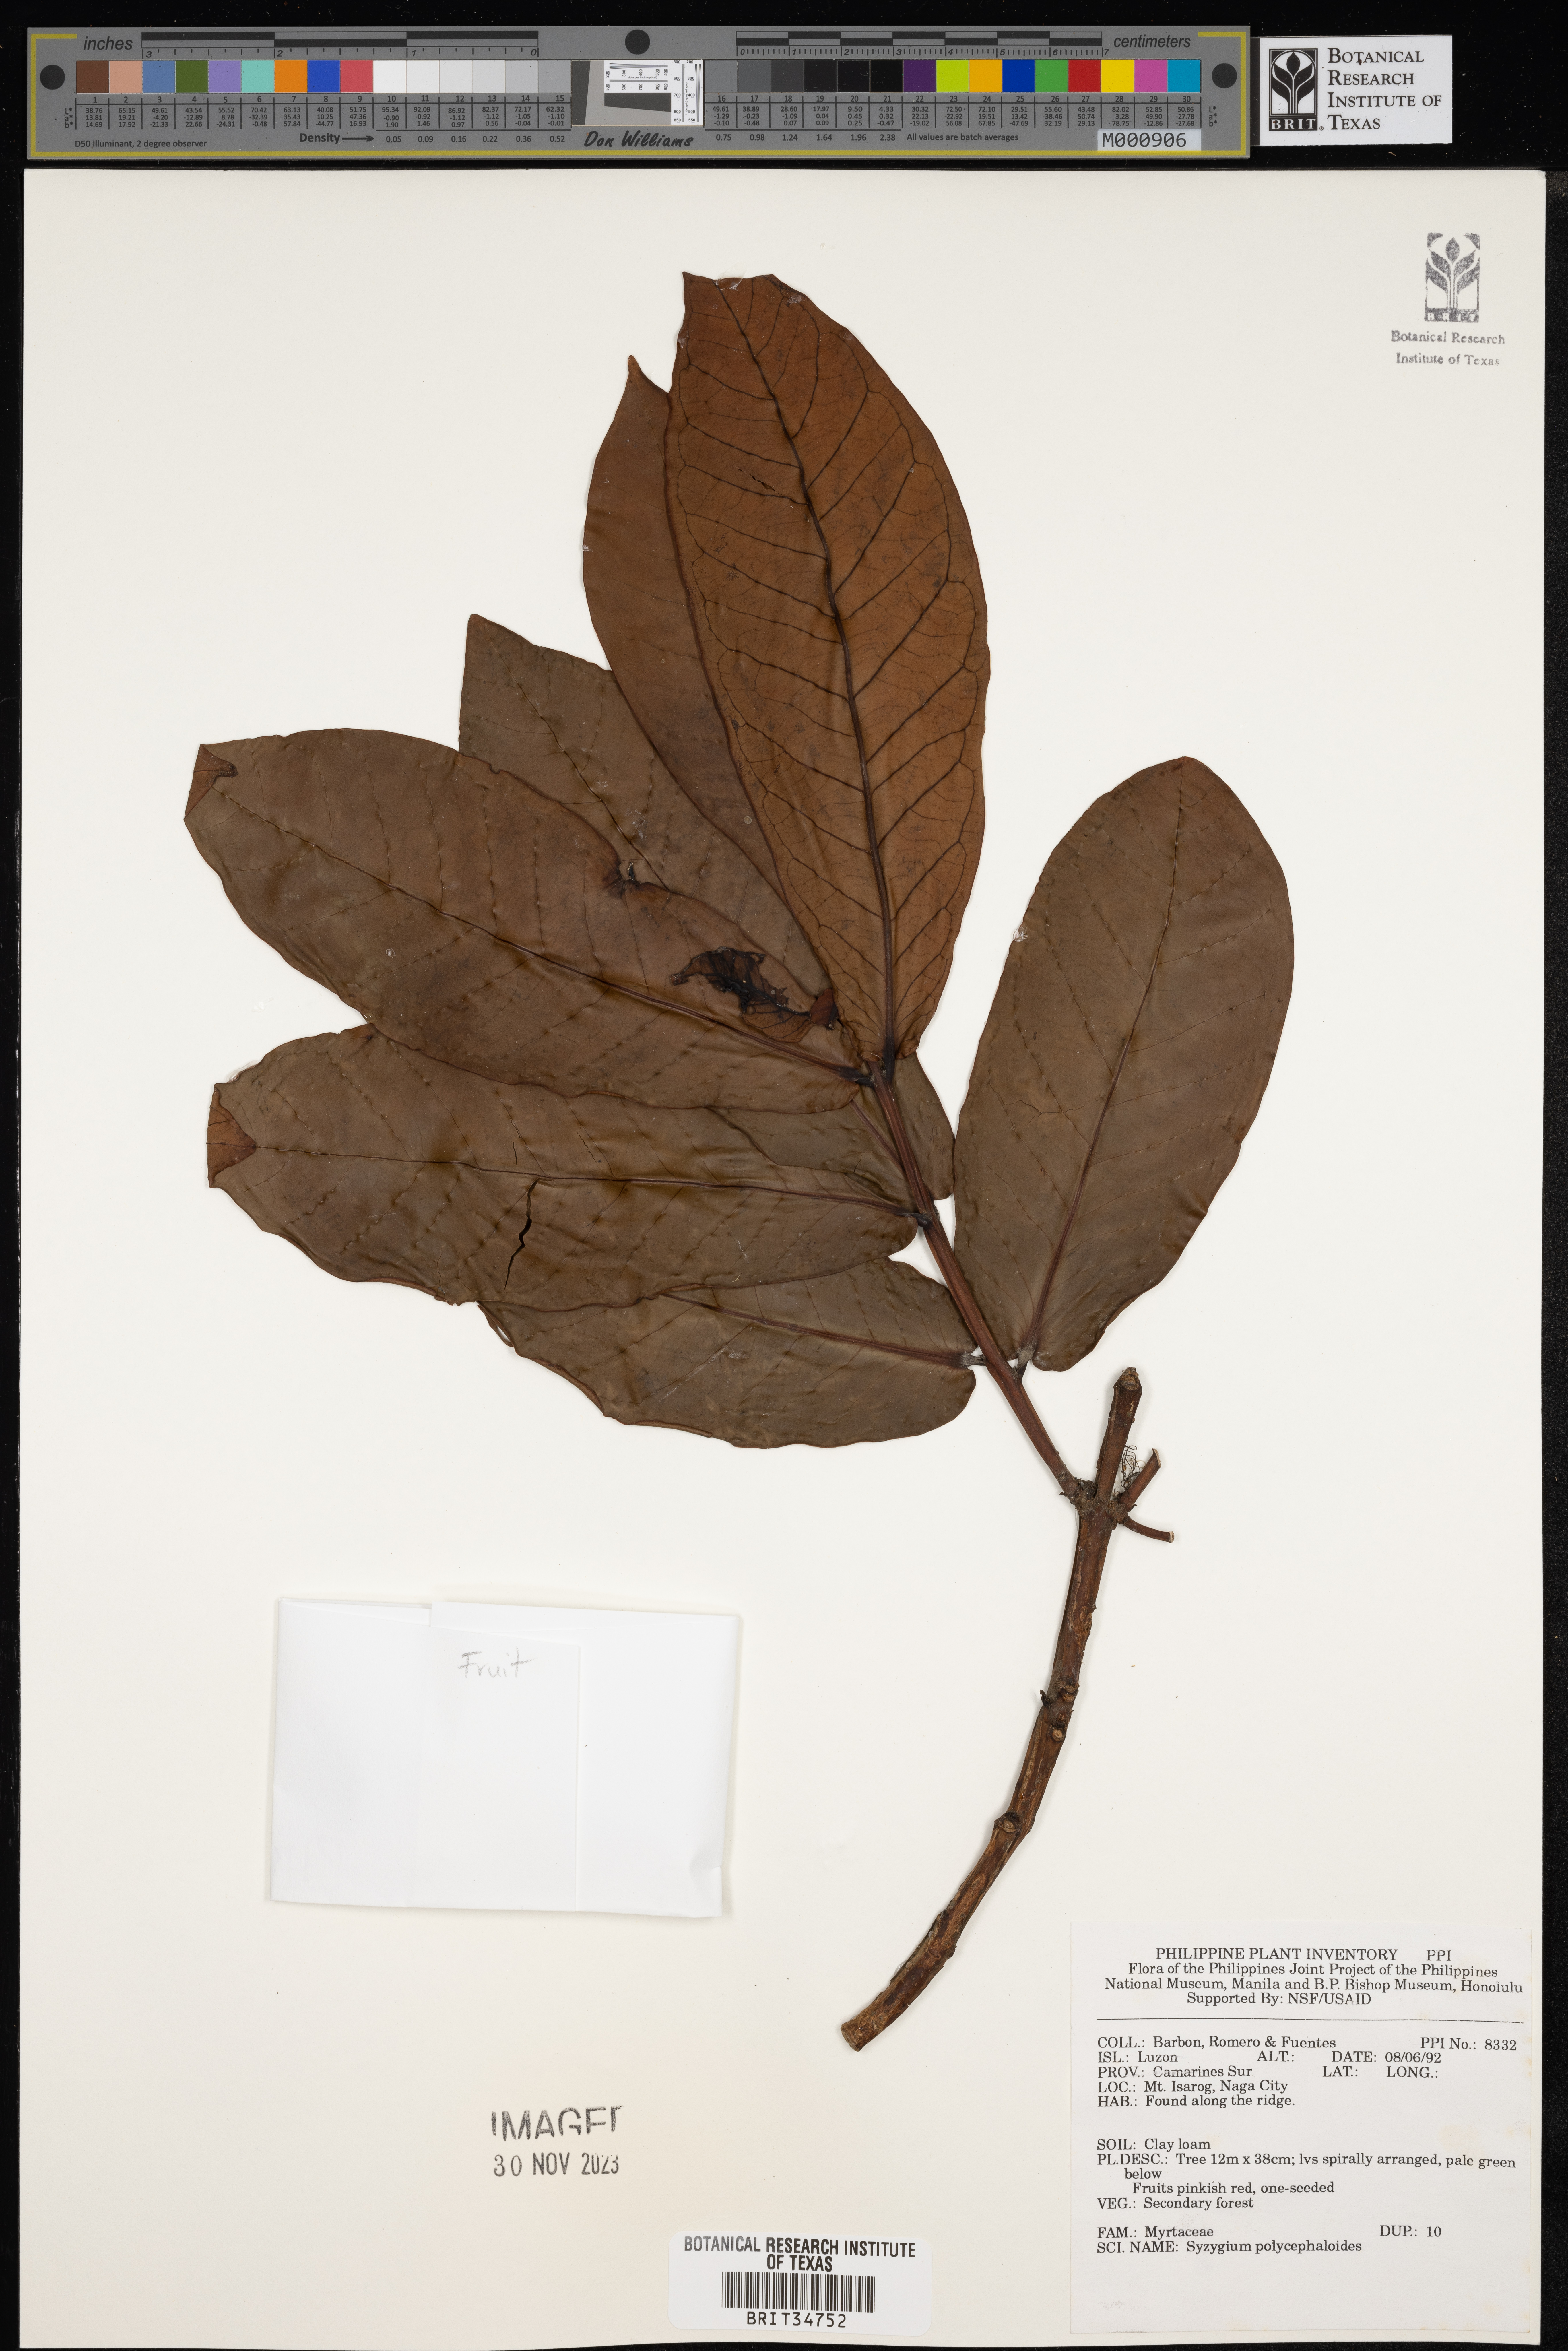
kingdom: Plantae
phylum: Tracheophyta
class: Magnoliopsida
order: Myrtales
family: Myrtaceae
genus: Syzygium
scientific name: Syzygium polycephaloides
